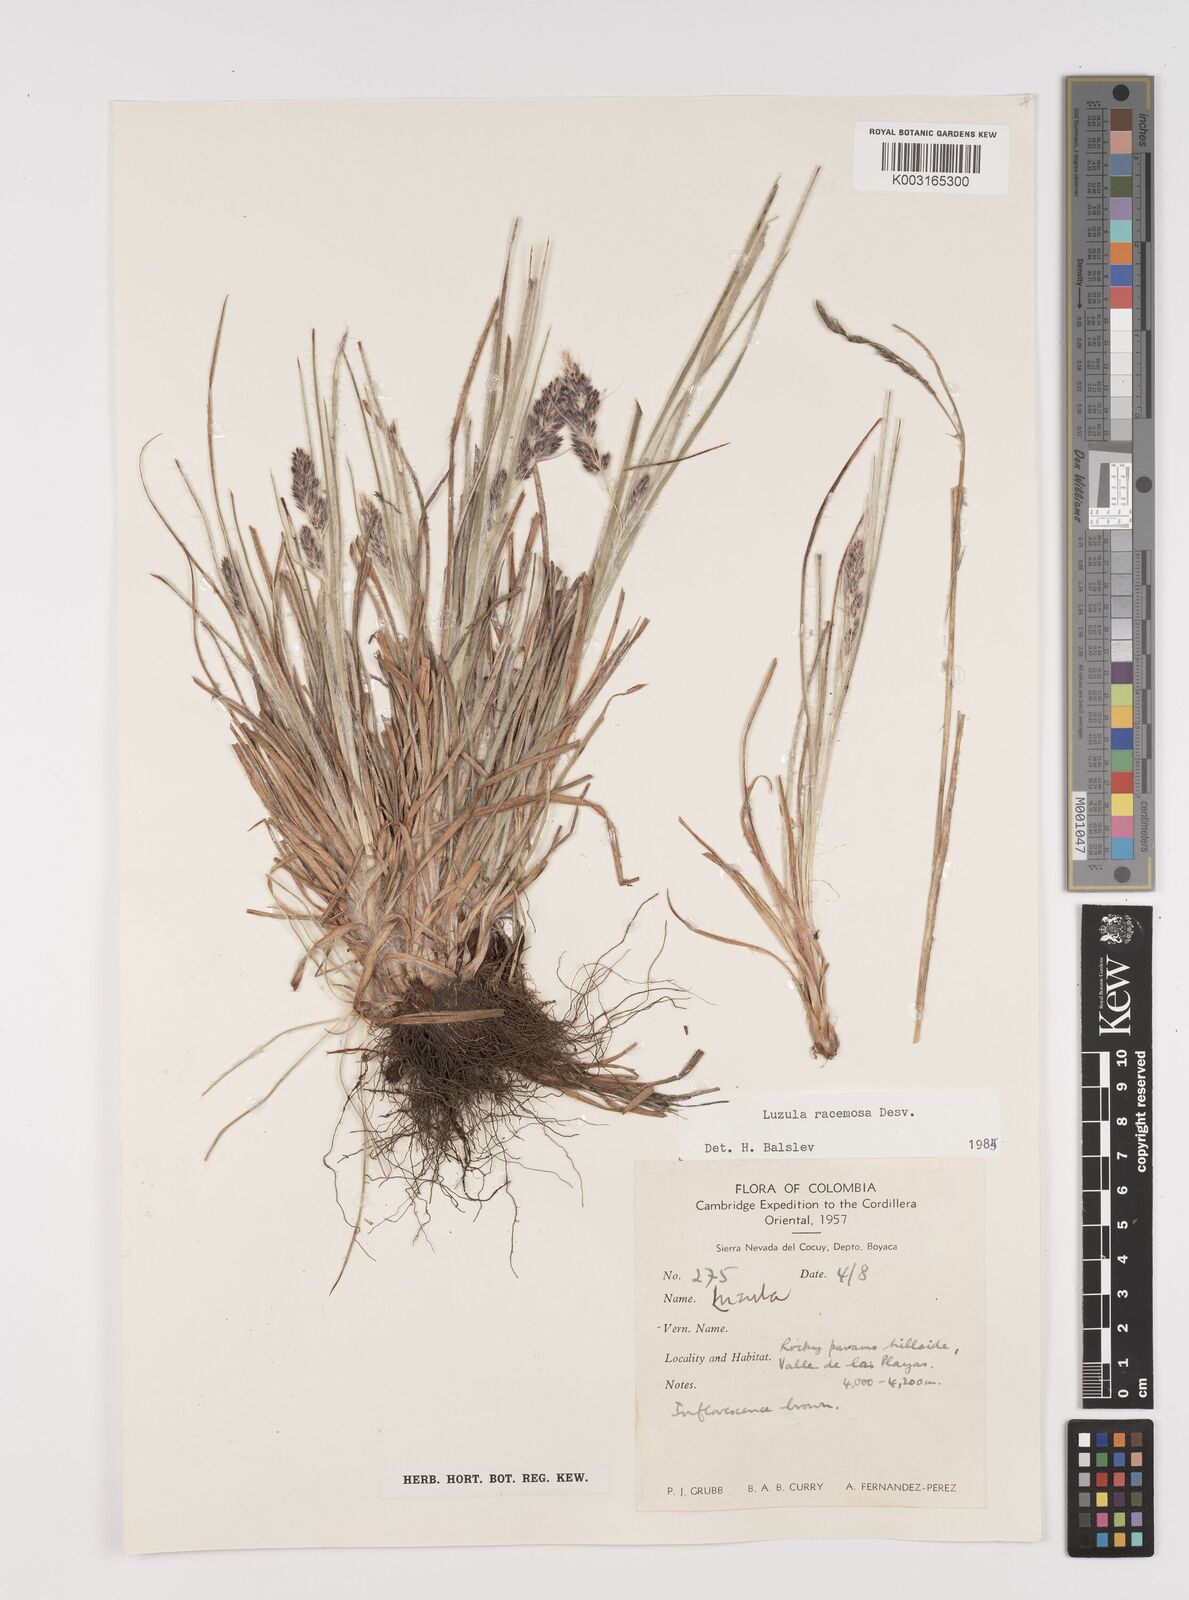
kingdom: Plantae
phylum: Tracheophyta
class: Liliopsida
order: Poales
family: Juncaceae
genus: Luzula
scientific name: Luzula racemosa
